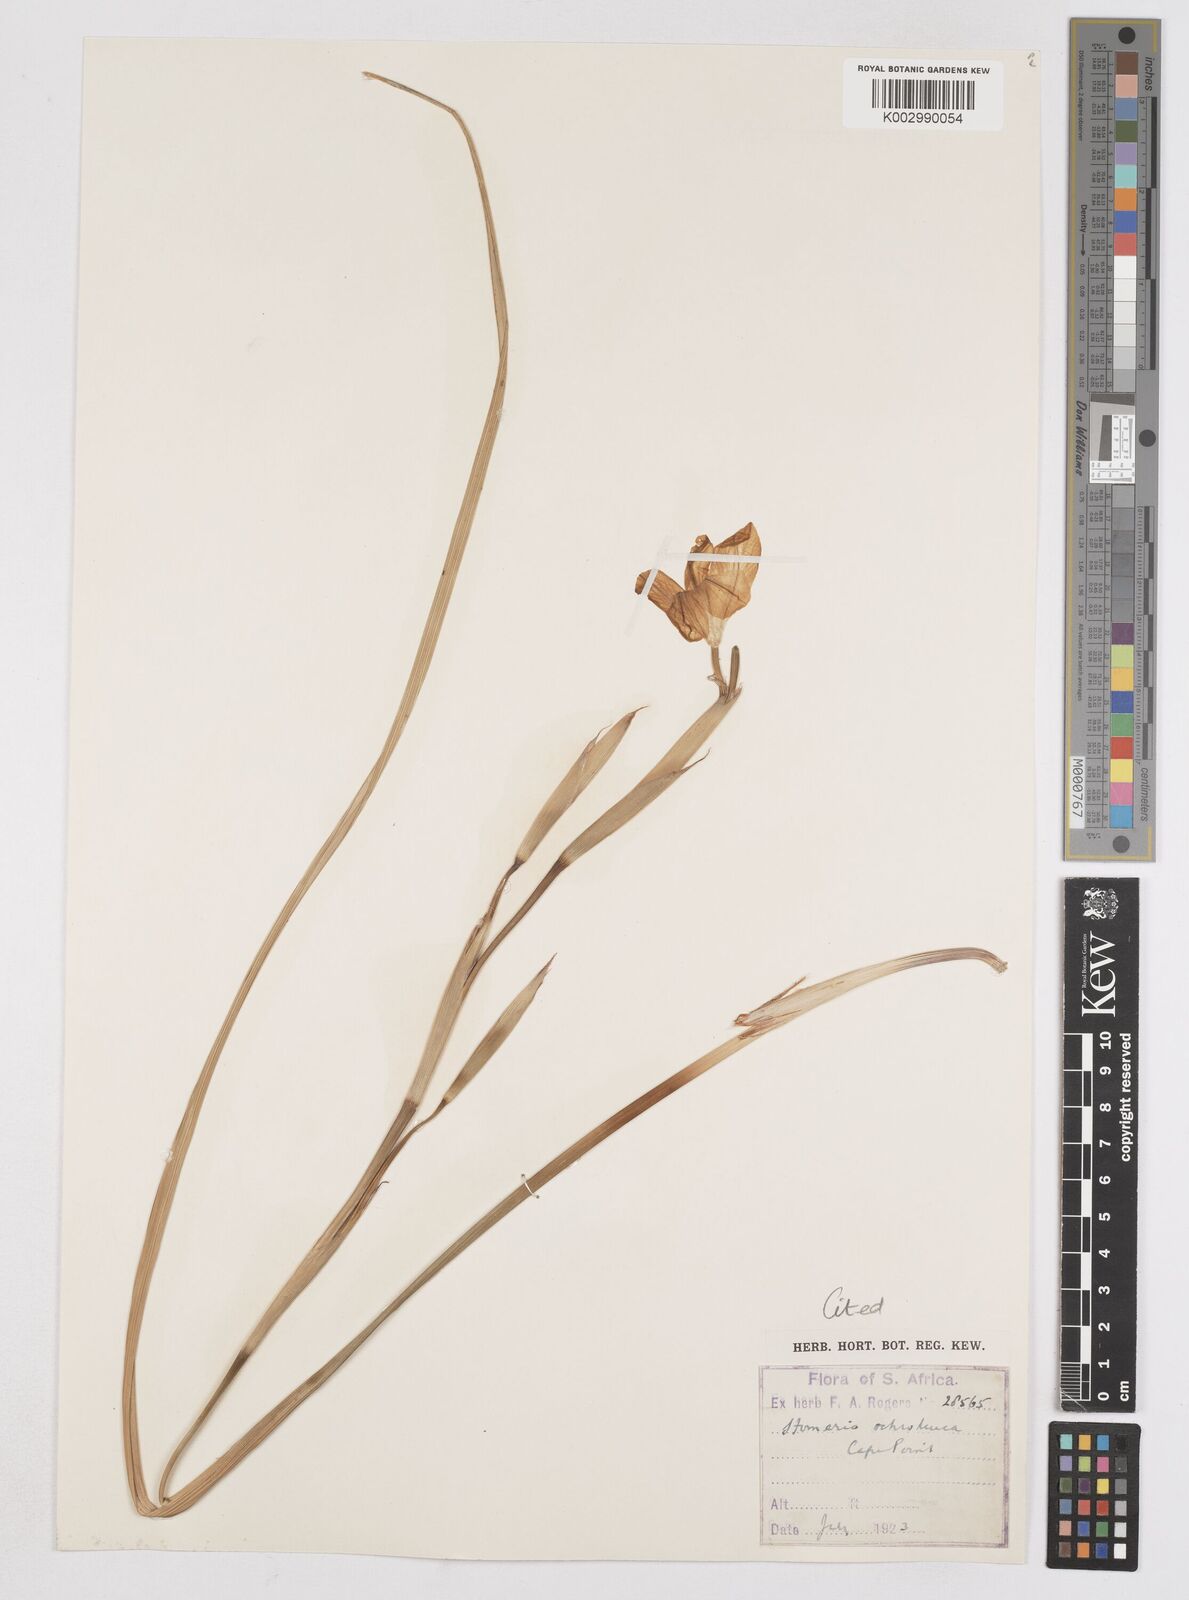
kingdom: Plantae
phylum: Tracheophyta
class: Liliopsida
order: Asparagales
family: Iridaceae
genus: Moraea
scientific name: Moraea ochroleuca
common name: Red tulp
